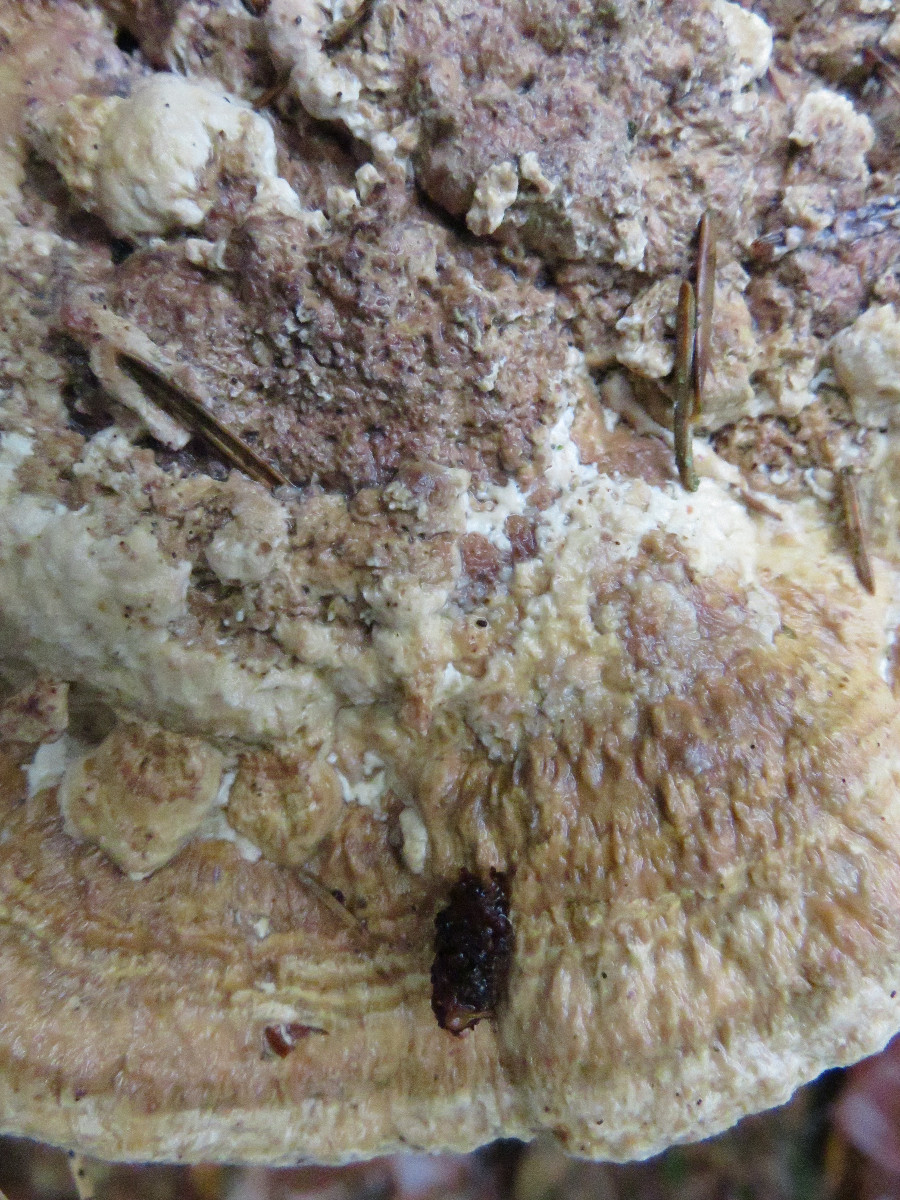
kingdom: Fungi
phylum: Basidiomycota
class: Agaricomycetes
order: Polyporales
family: Fomitopsidaceae
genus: Daedalea
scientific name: Daedalea quercina
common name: ege-labyrintsvamp
